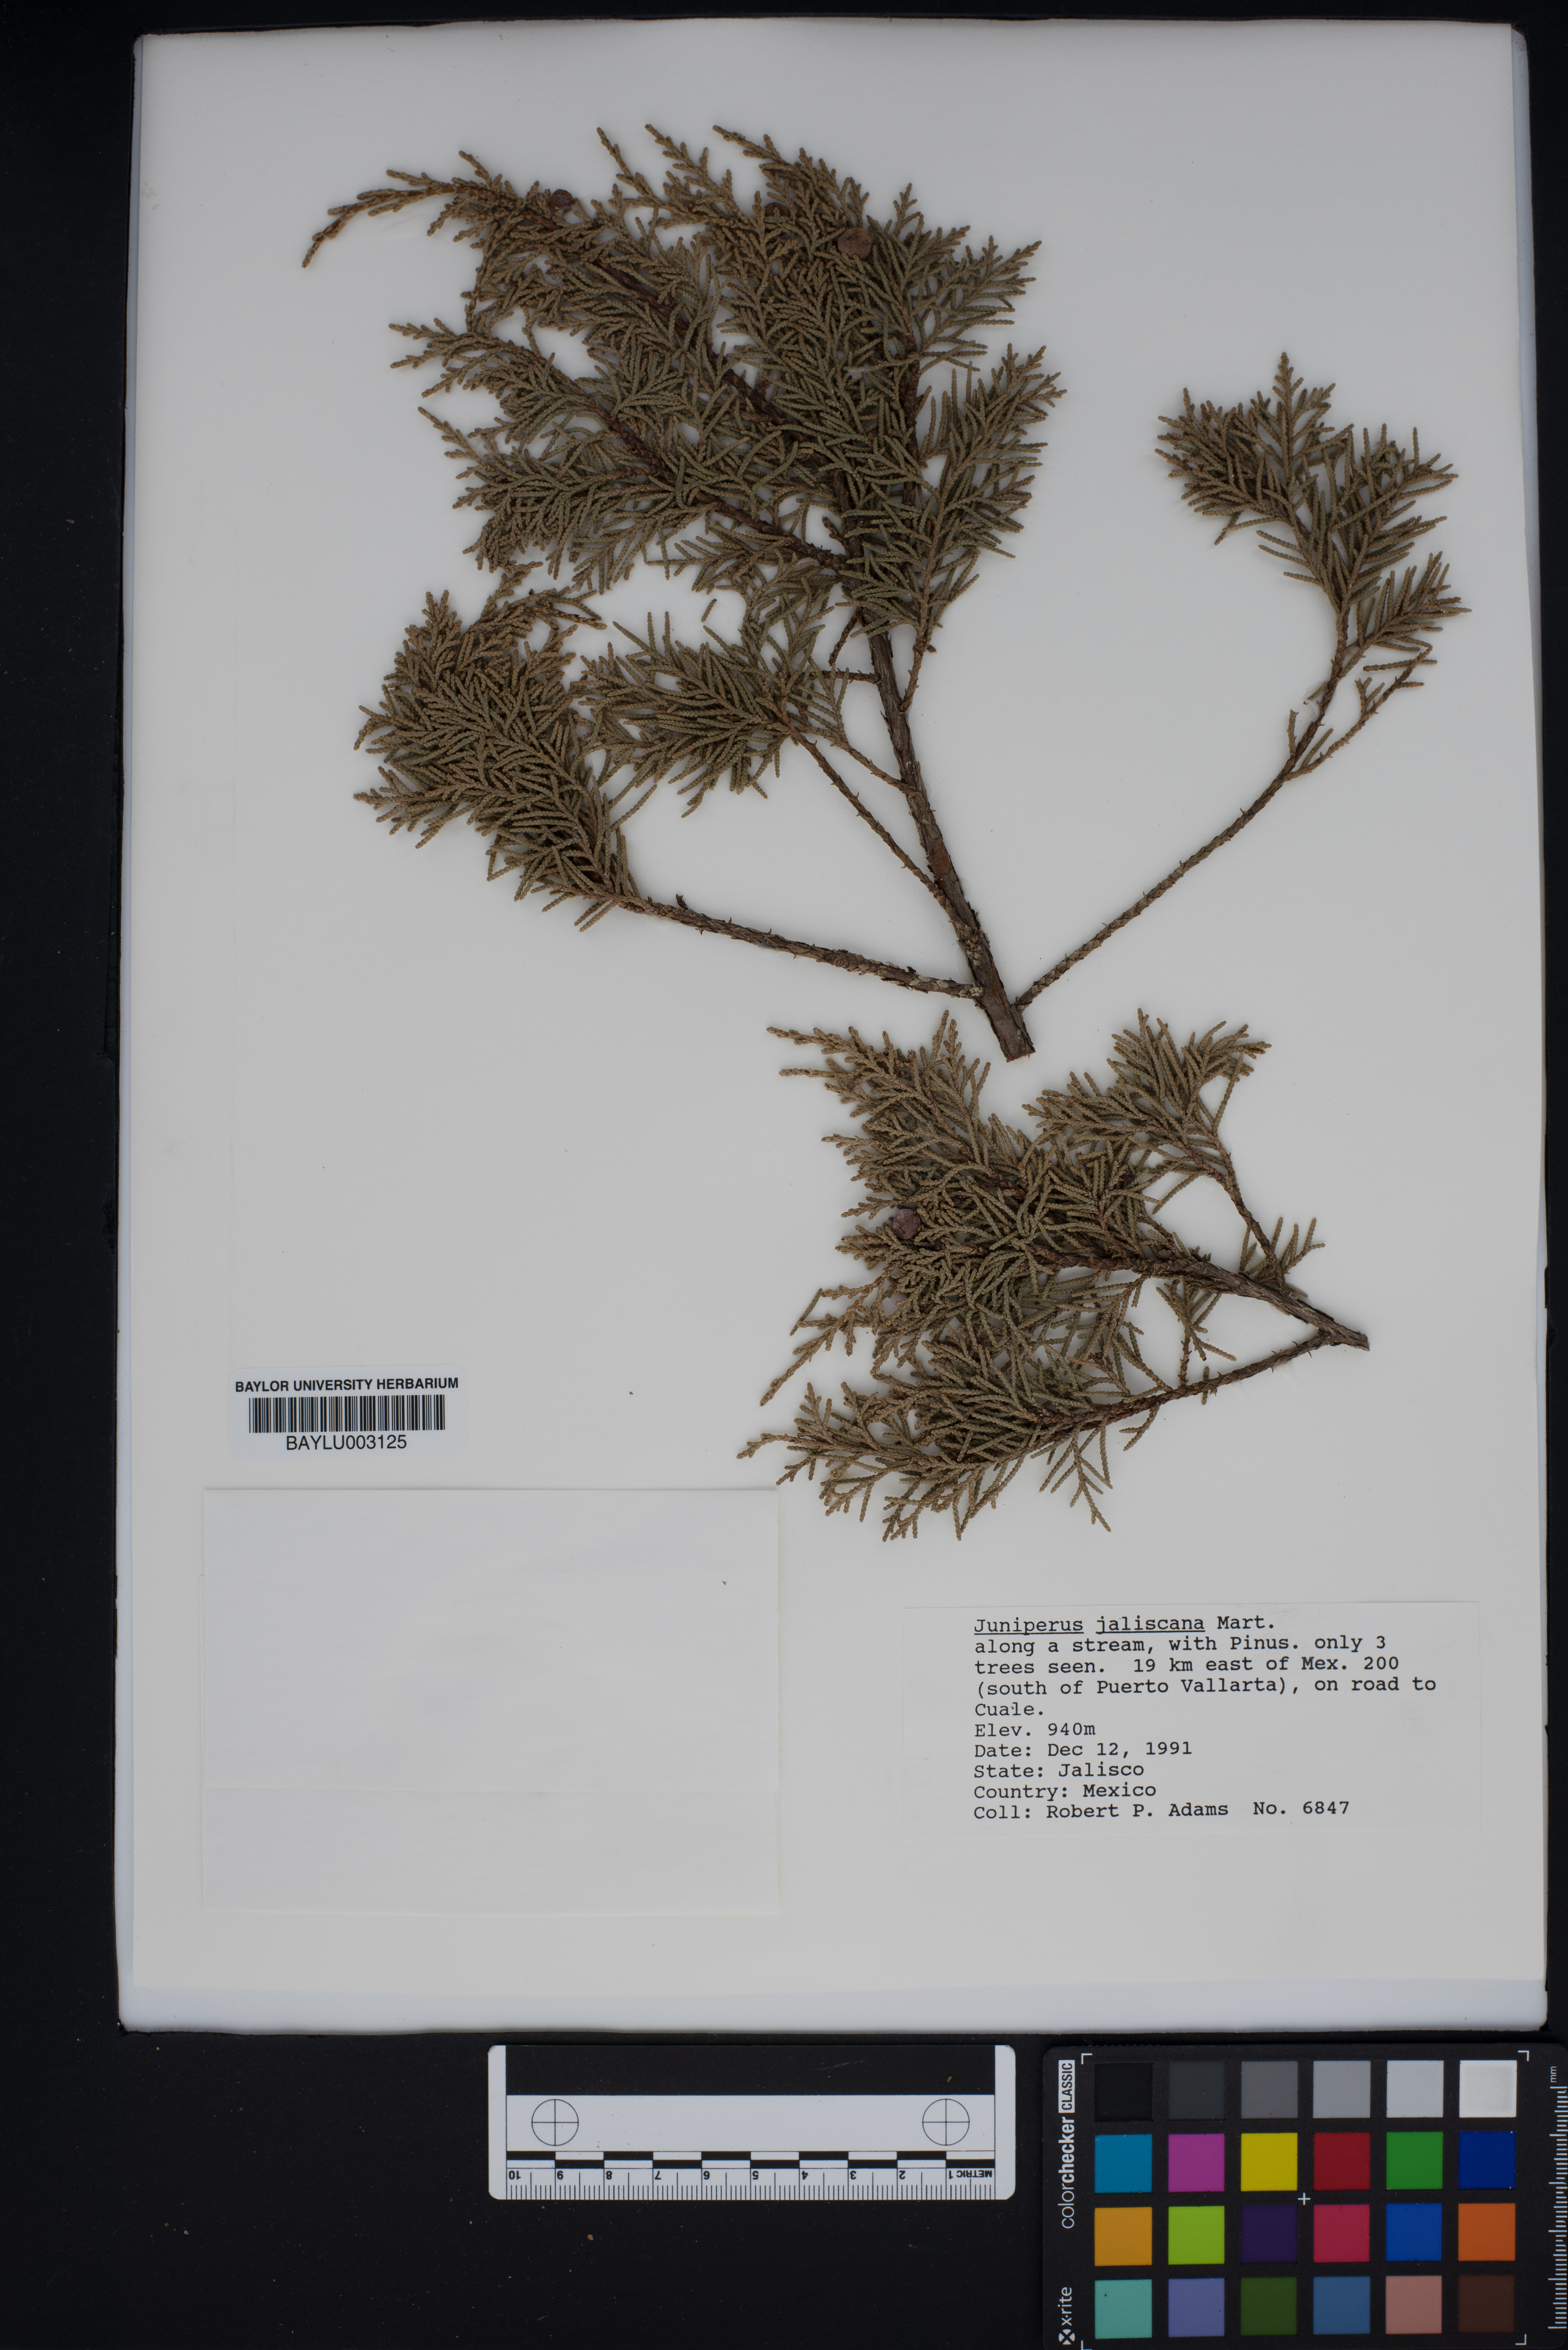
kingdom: Plantae
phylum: Tracheophyta
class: Pinopsida
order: Pinales
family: Cupressaceae
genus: Juniperus
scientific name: Juniperus jaliscana
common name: Jalisco juniper
